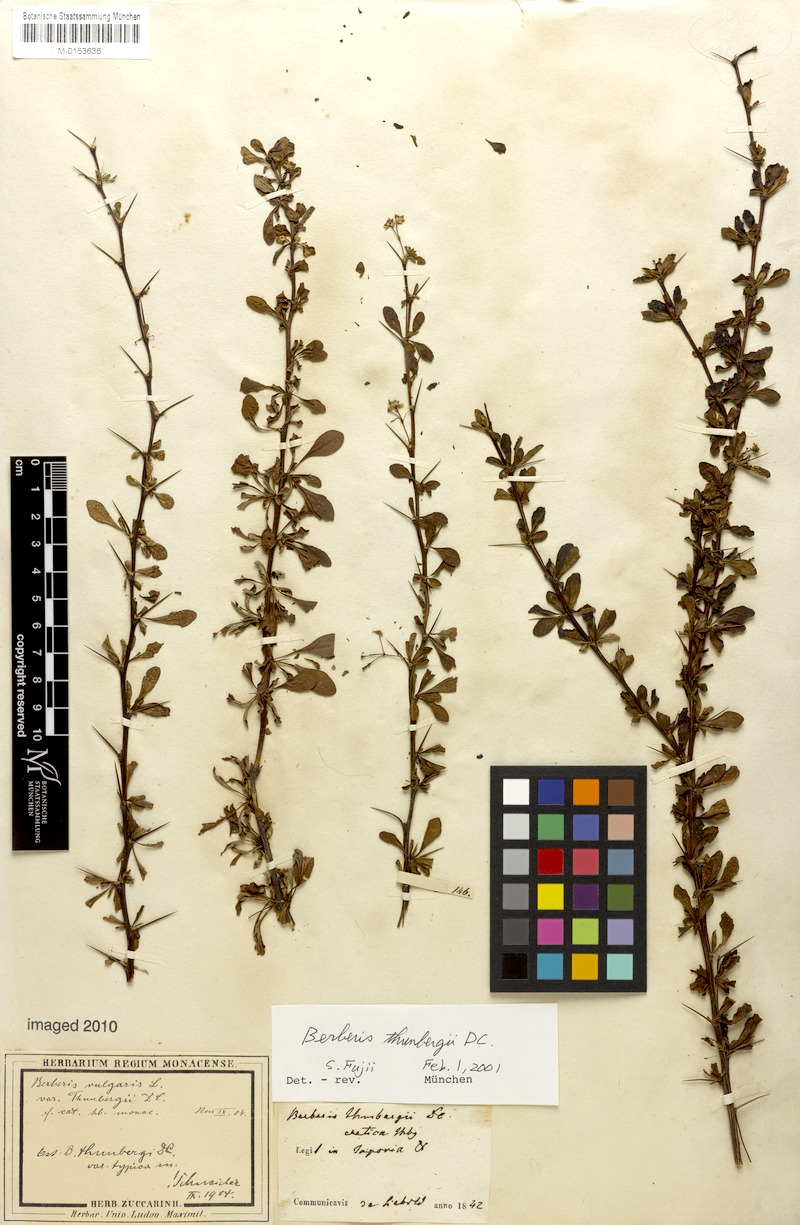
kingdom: Plantae
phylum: Tracheophyta
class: Magnoliopsida
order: Ranunculales
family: Berberidaceae
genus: Berberis
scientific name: Berberis thunbergii
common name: Japanese barberry
